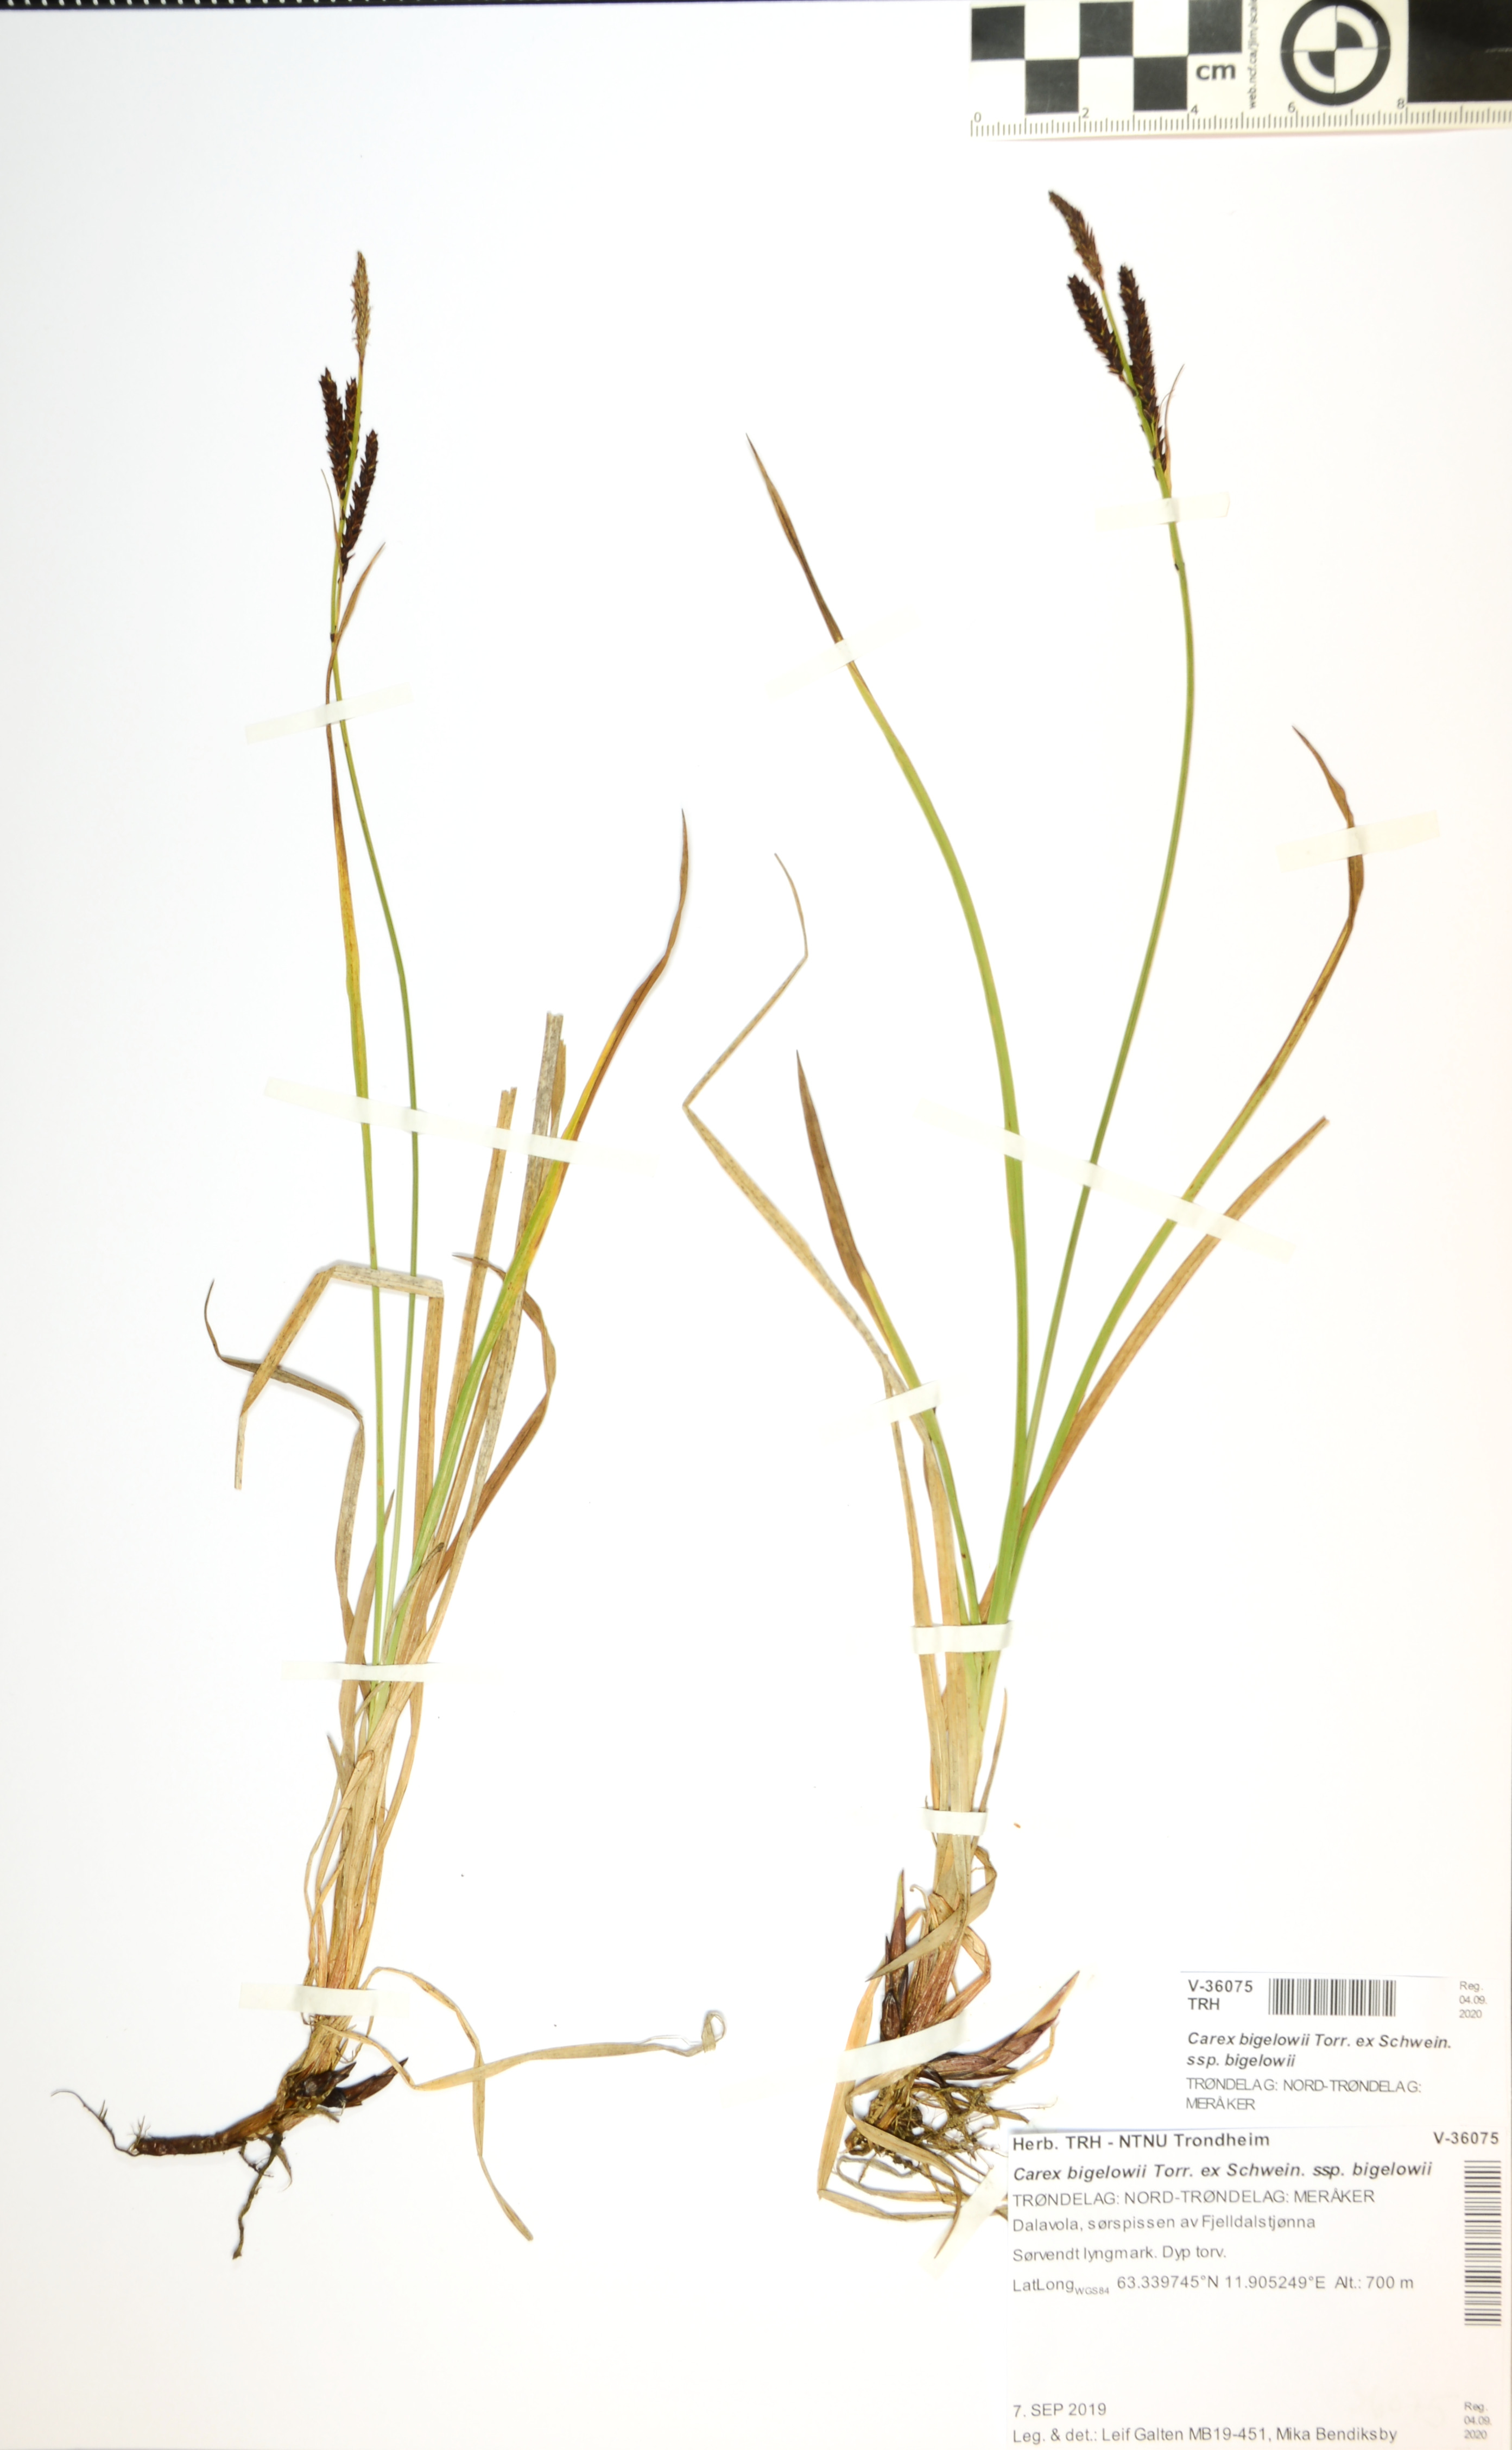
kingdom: Plantae
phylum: Tracheophyta
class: Liliopsida
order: Poales
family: Cyperaceae
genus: Carex
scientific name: Carex bigelowii
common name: Stiff sedge
